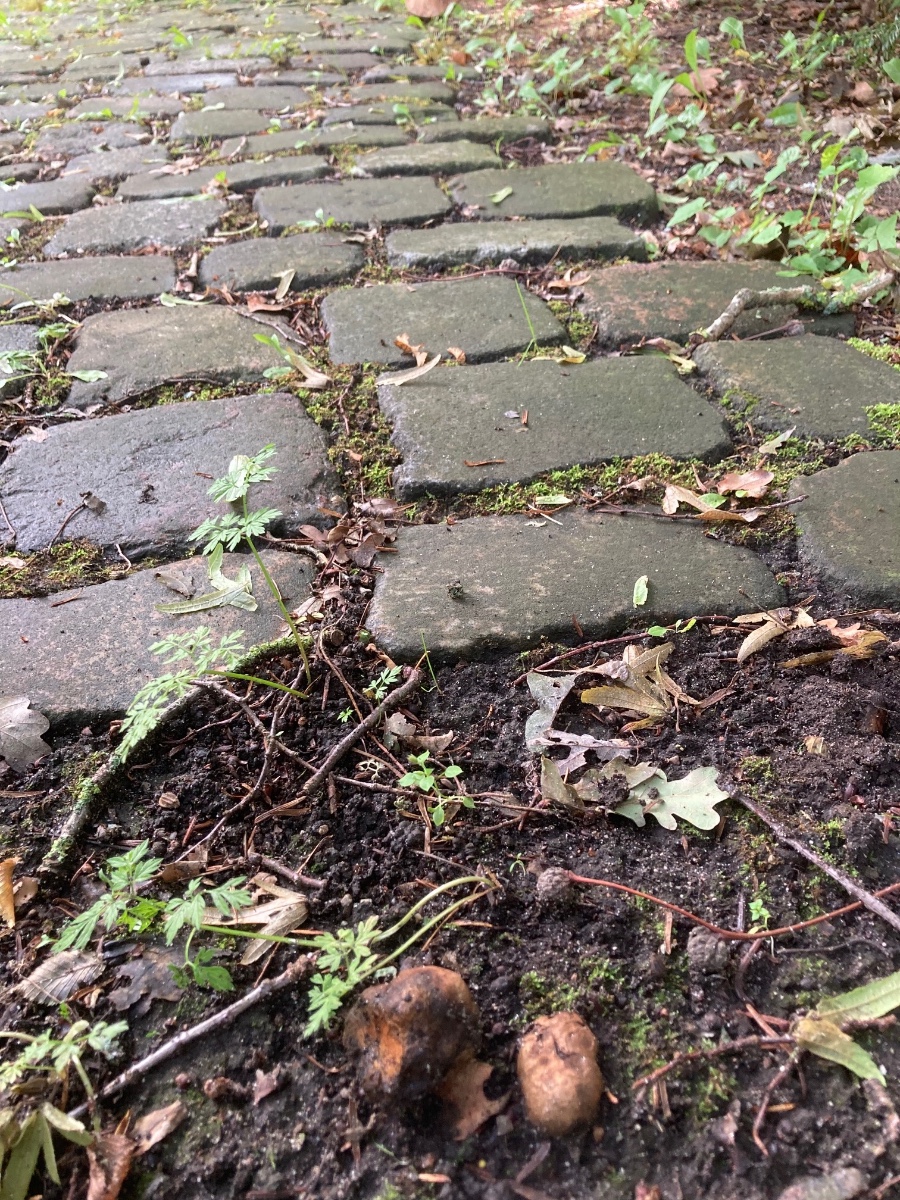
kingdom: Fungi
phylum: Basidiomycota
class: Agaricomycetes
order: Boletales
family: Paxillaceae
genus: Melanogaster
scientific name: Melanogaster broomeanus
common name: broget slimtrøffel
